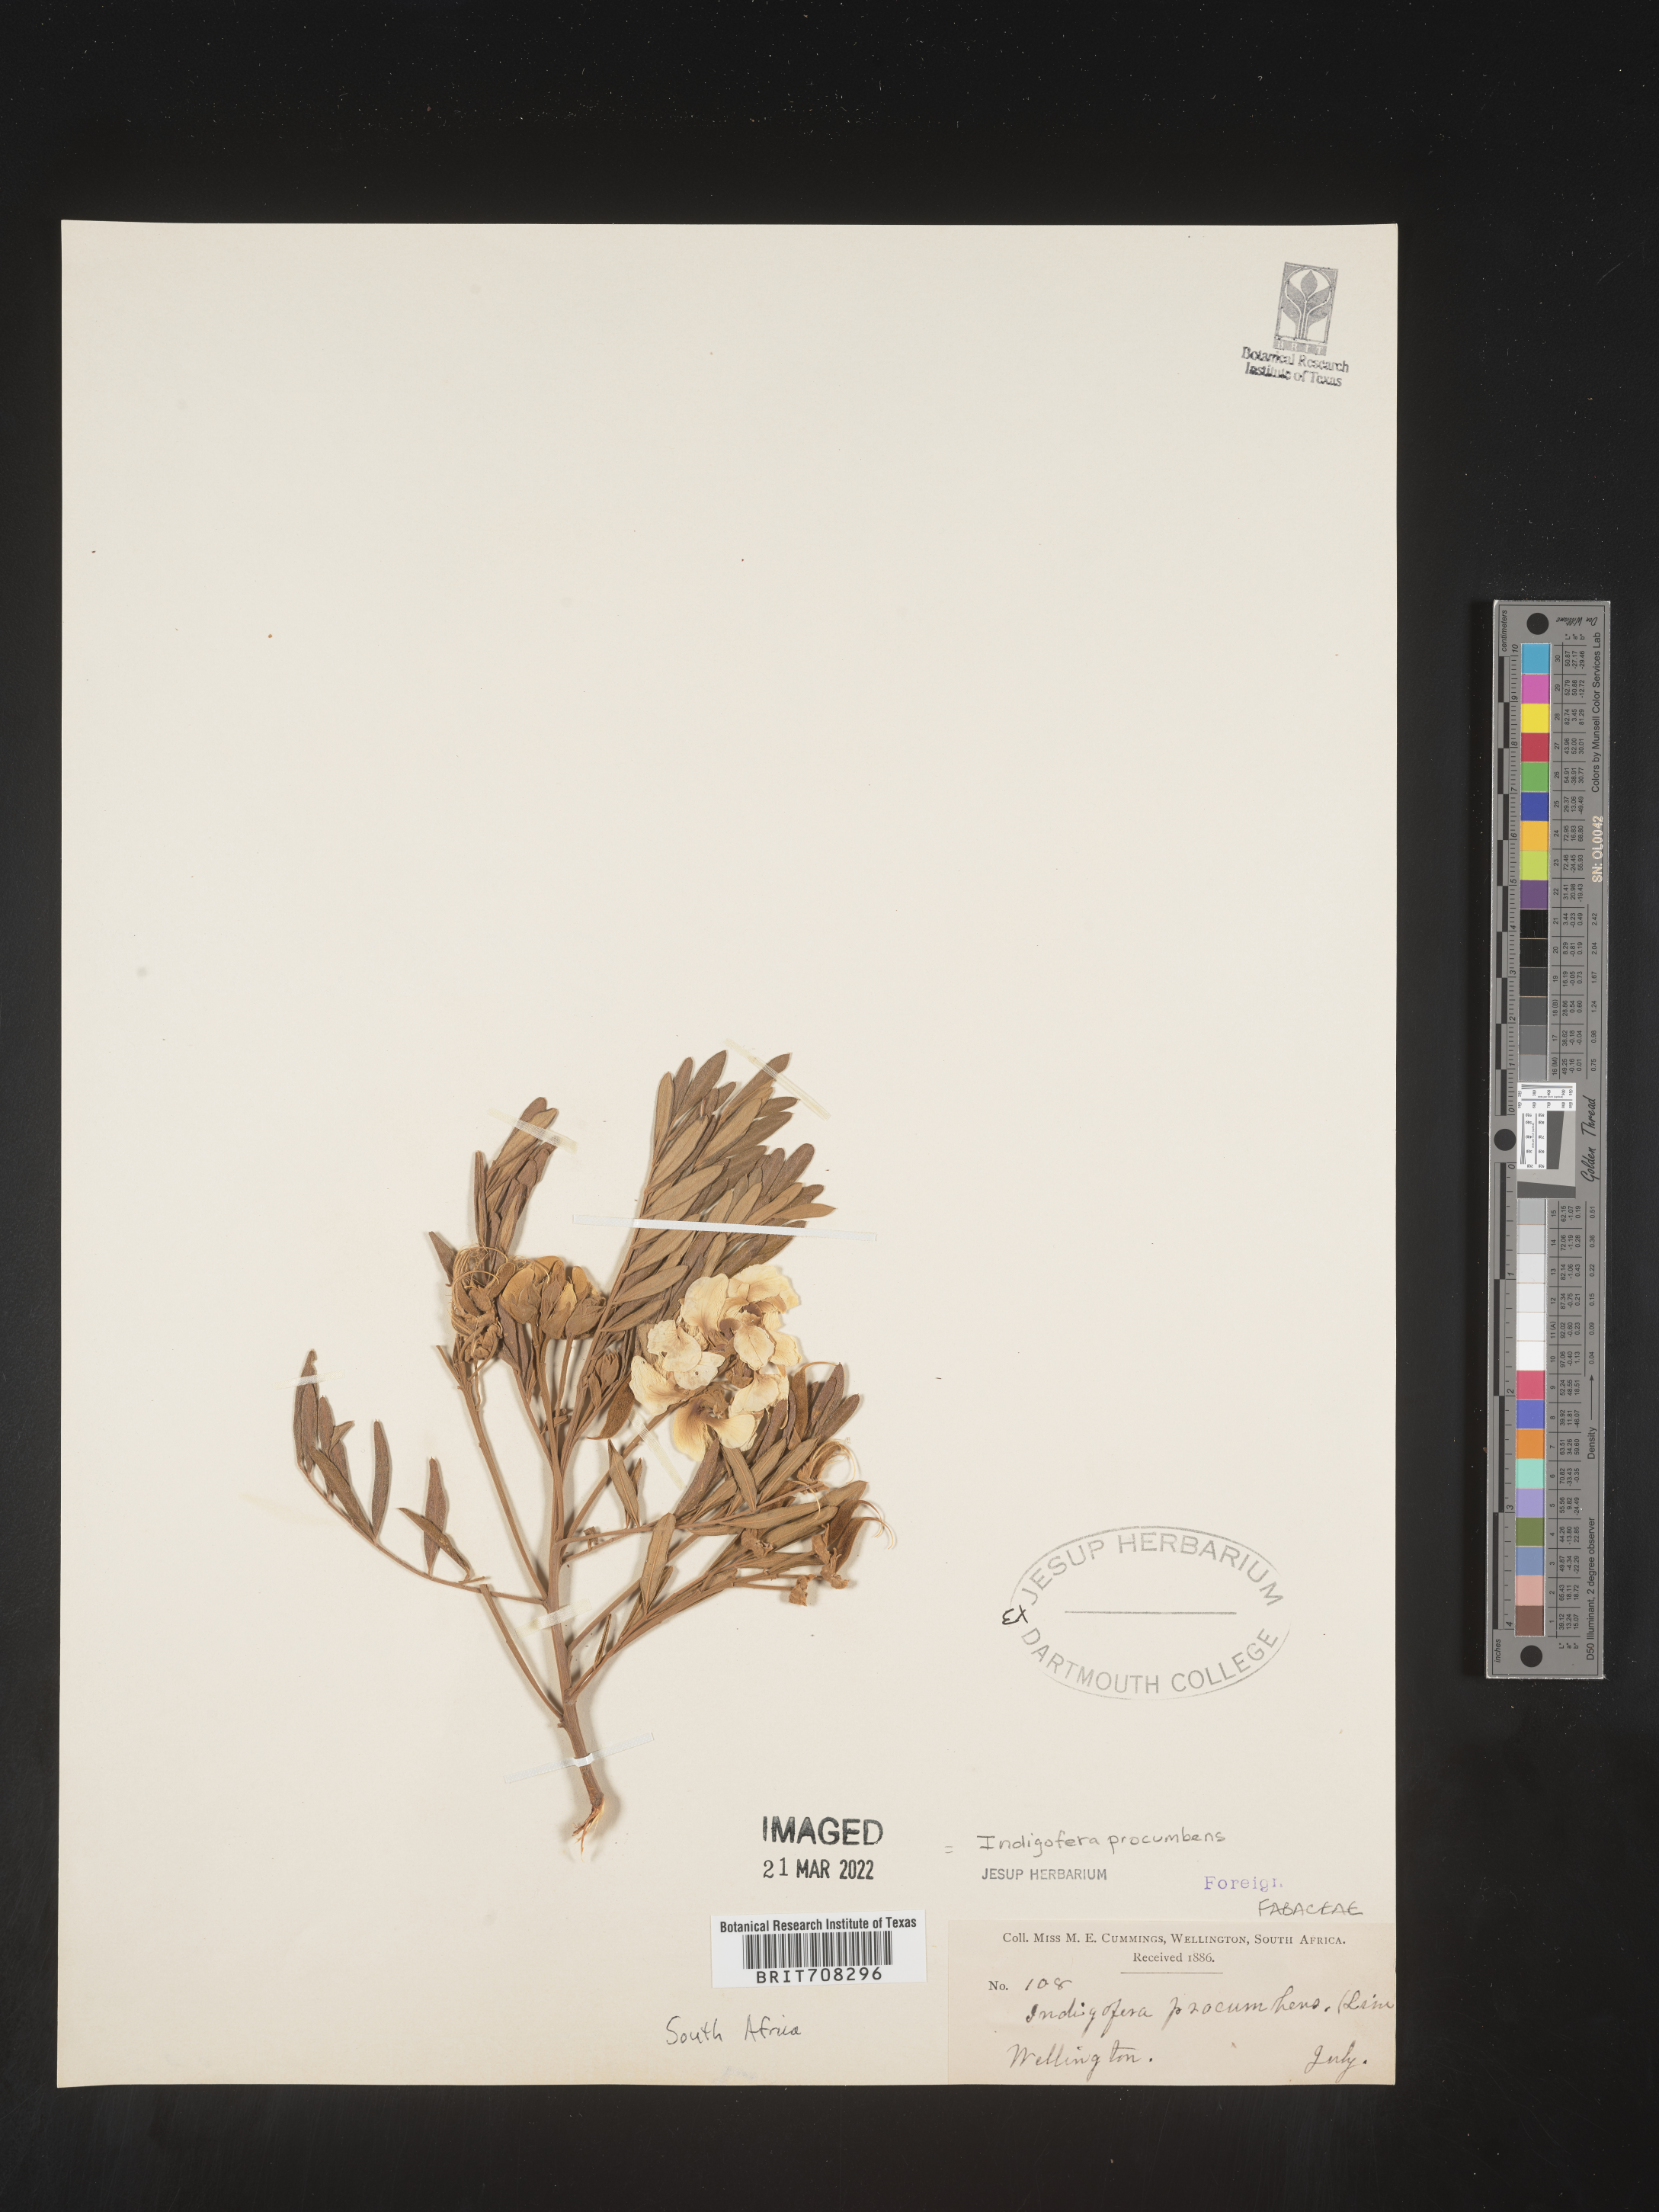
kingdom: Plantae
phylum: Tracheophyta
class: Magnoliopsida
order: Fabales
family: Fabaceae
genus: Indigofera
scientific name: Indigofera
